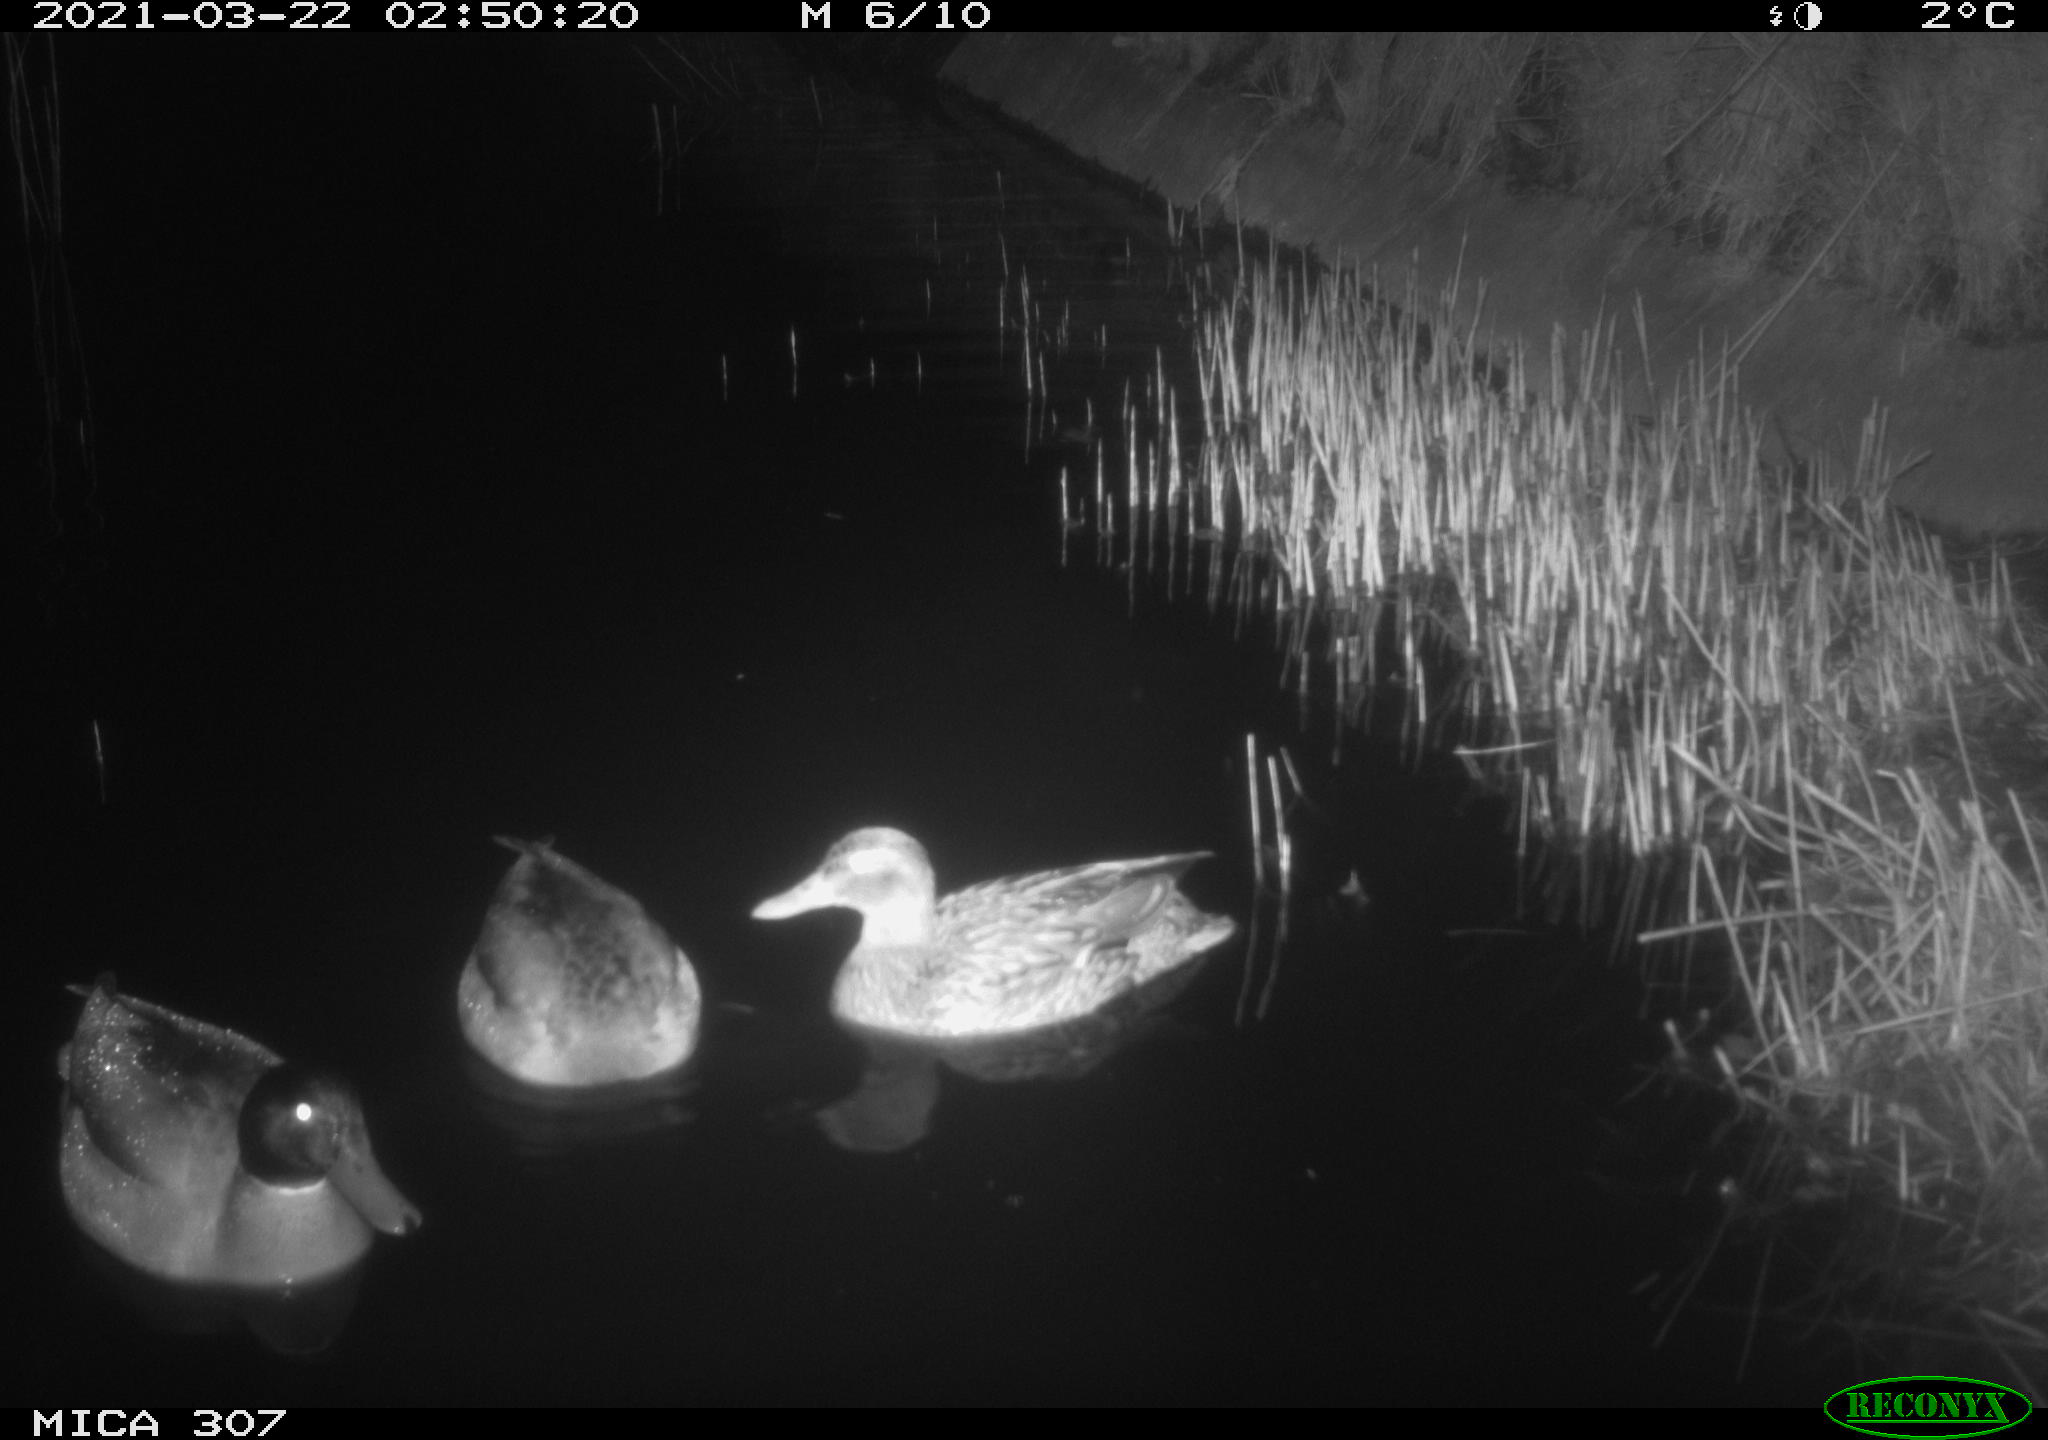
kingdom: Animalia
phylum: Chordata
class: Aves
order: Anseriformes
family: Anatidae
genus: Anas
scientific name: Anas platyrhynchos
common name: Mallard
